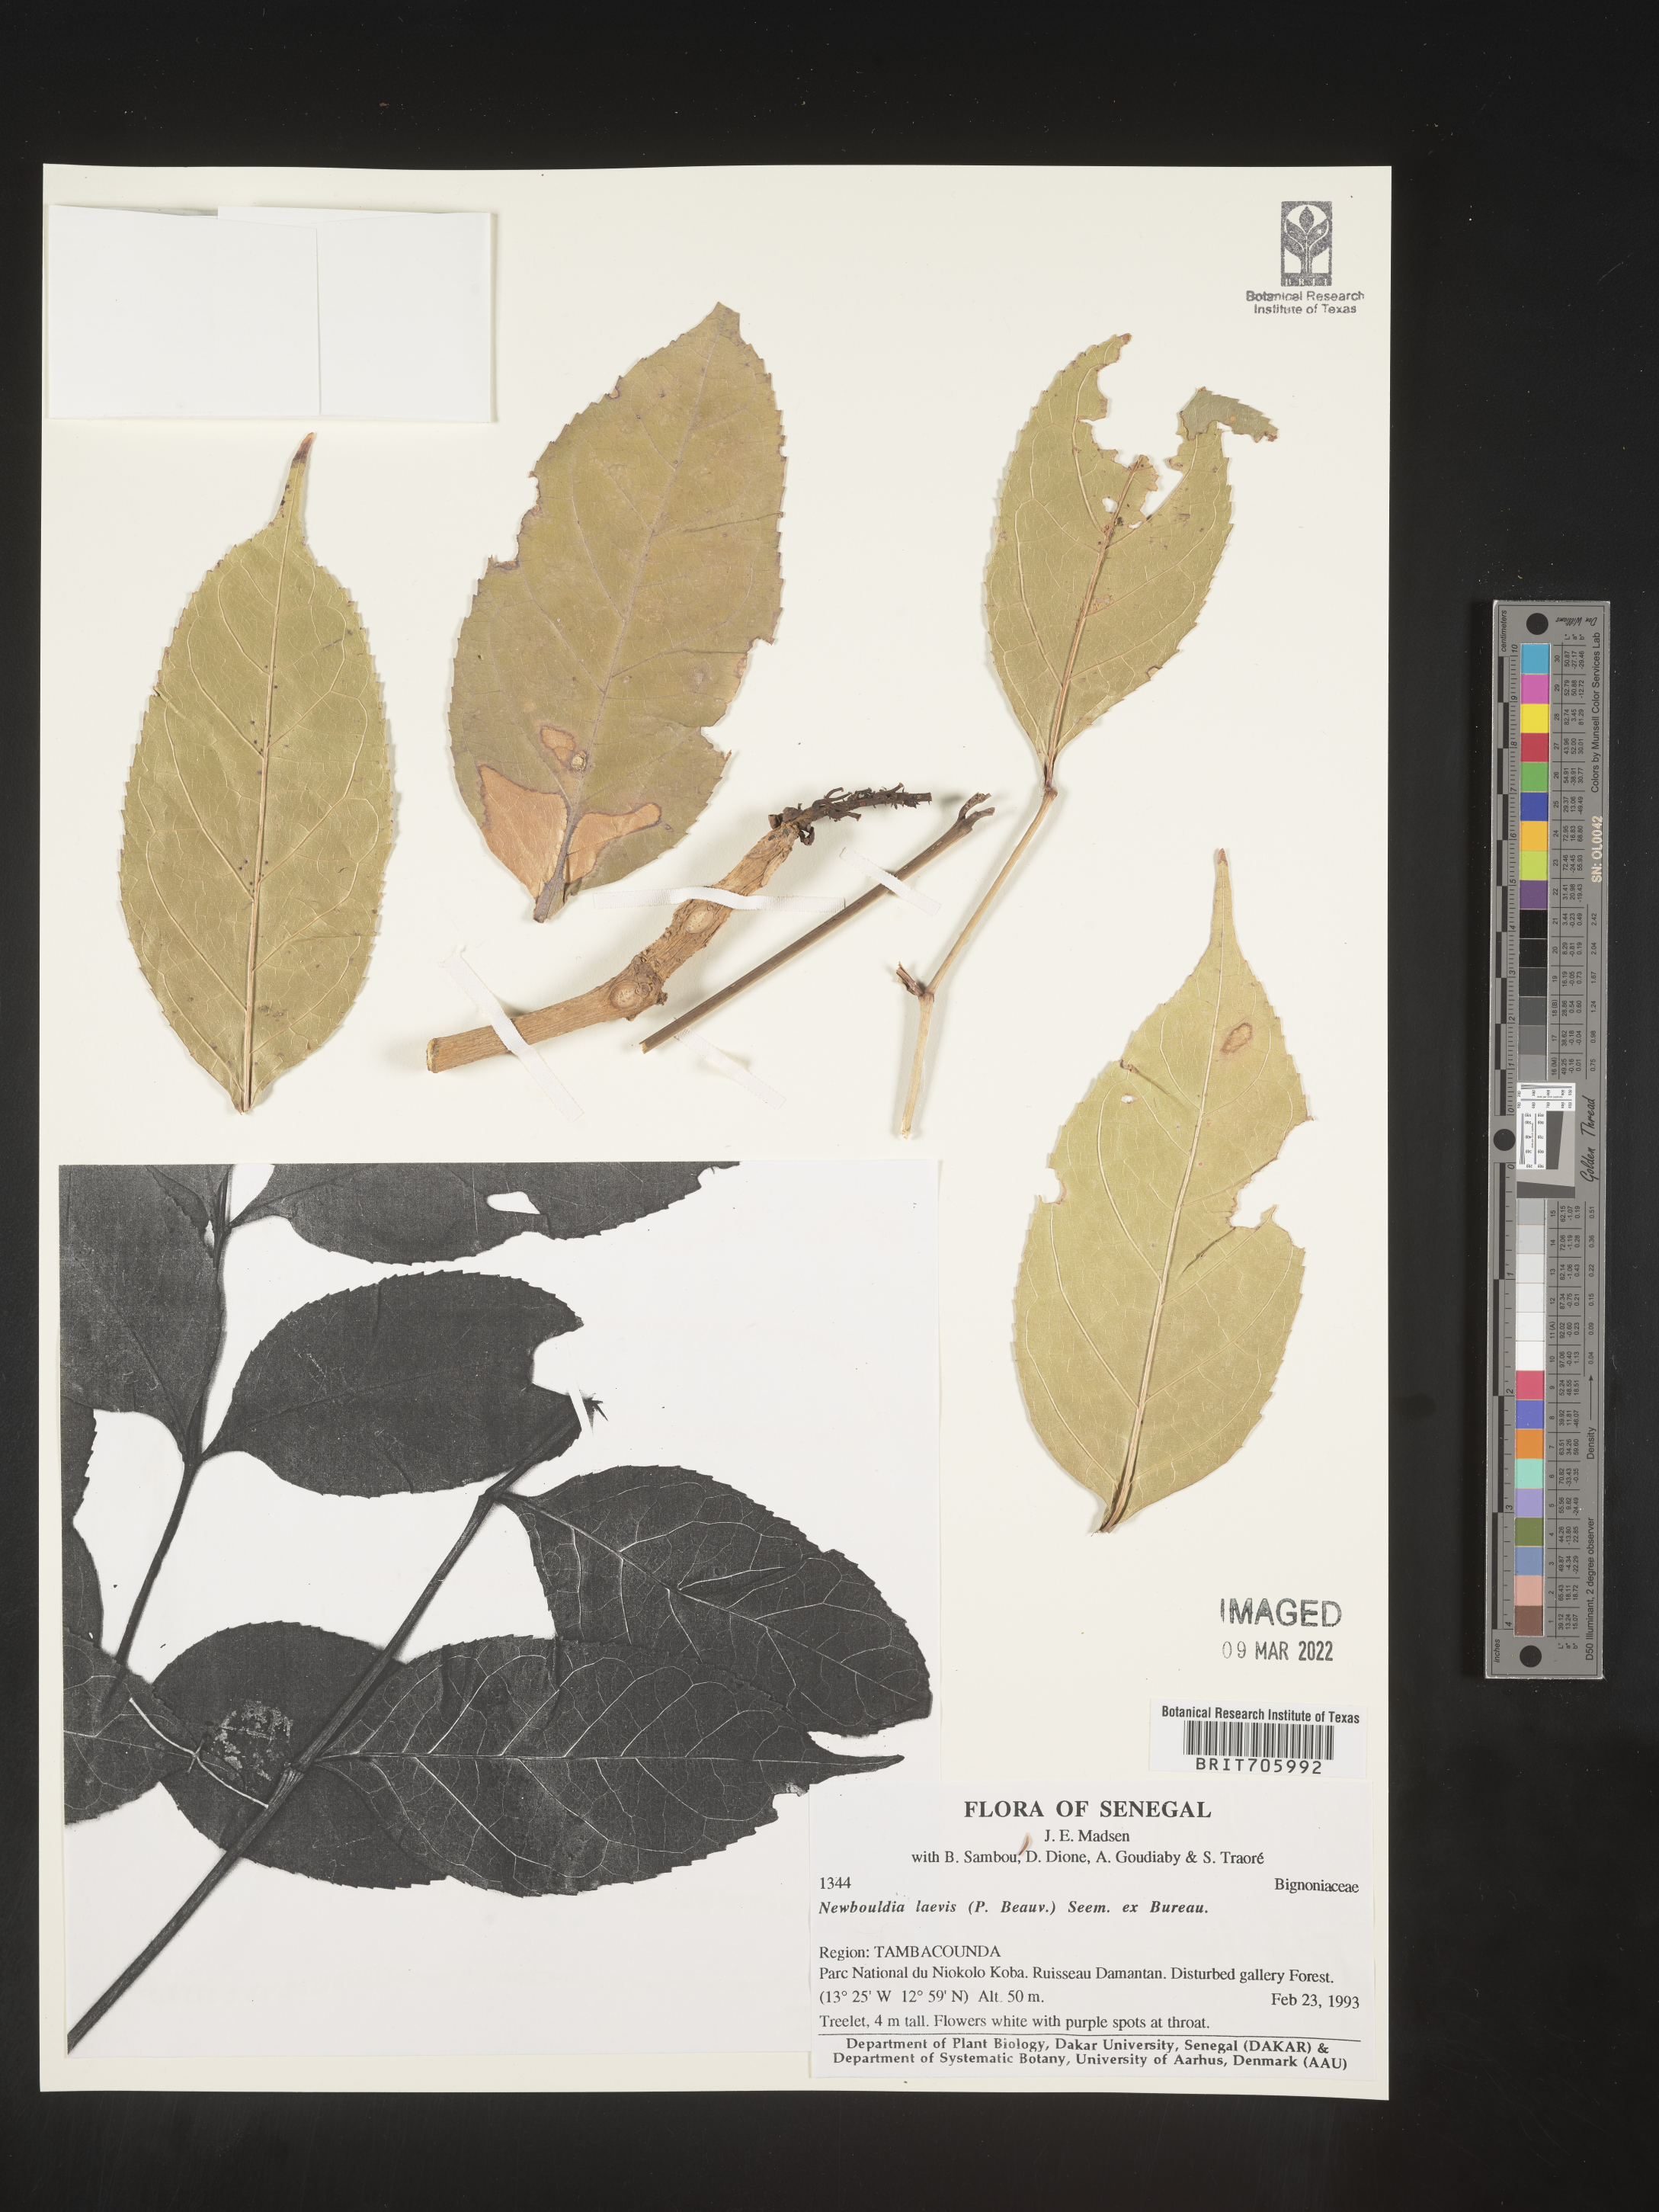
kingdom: Plantae
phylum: Tracheophyta
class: Magnoliopsida
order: Lamiales
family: Bignoniaceae
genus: Newbouldia
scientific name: Newbouldia
